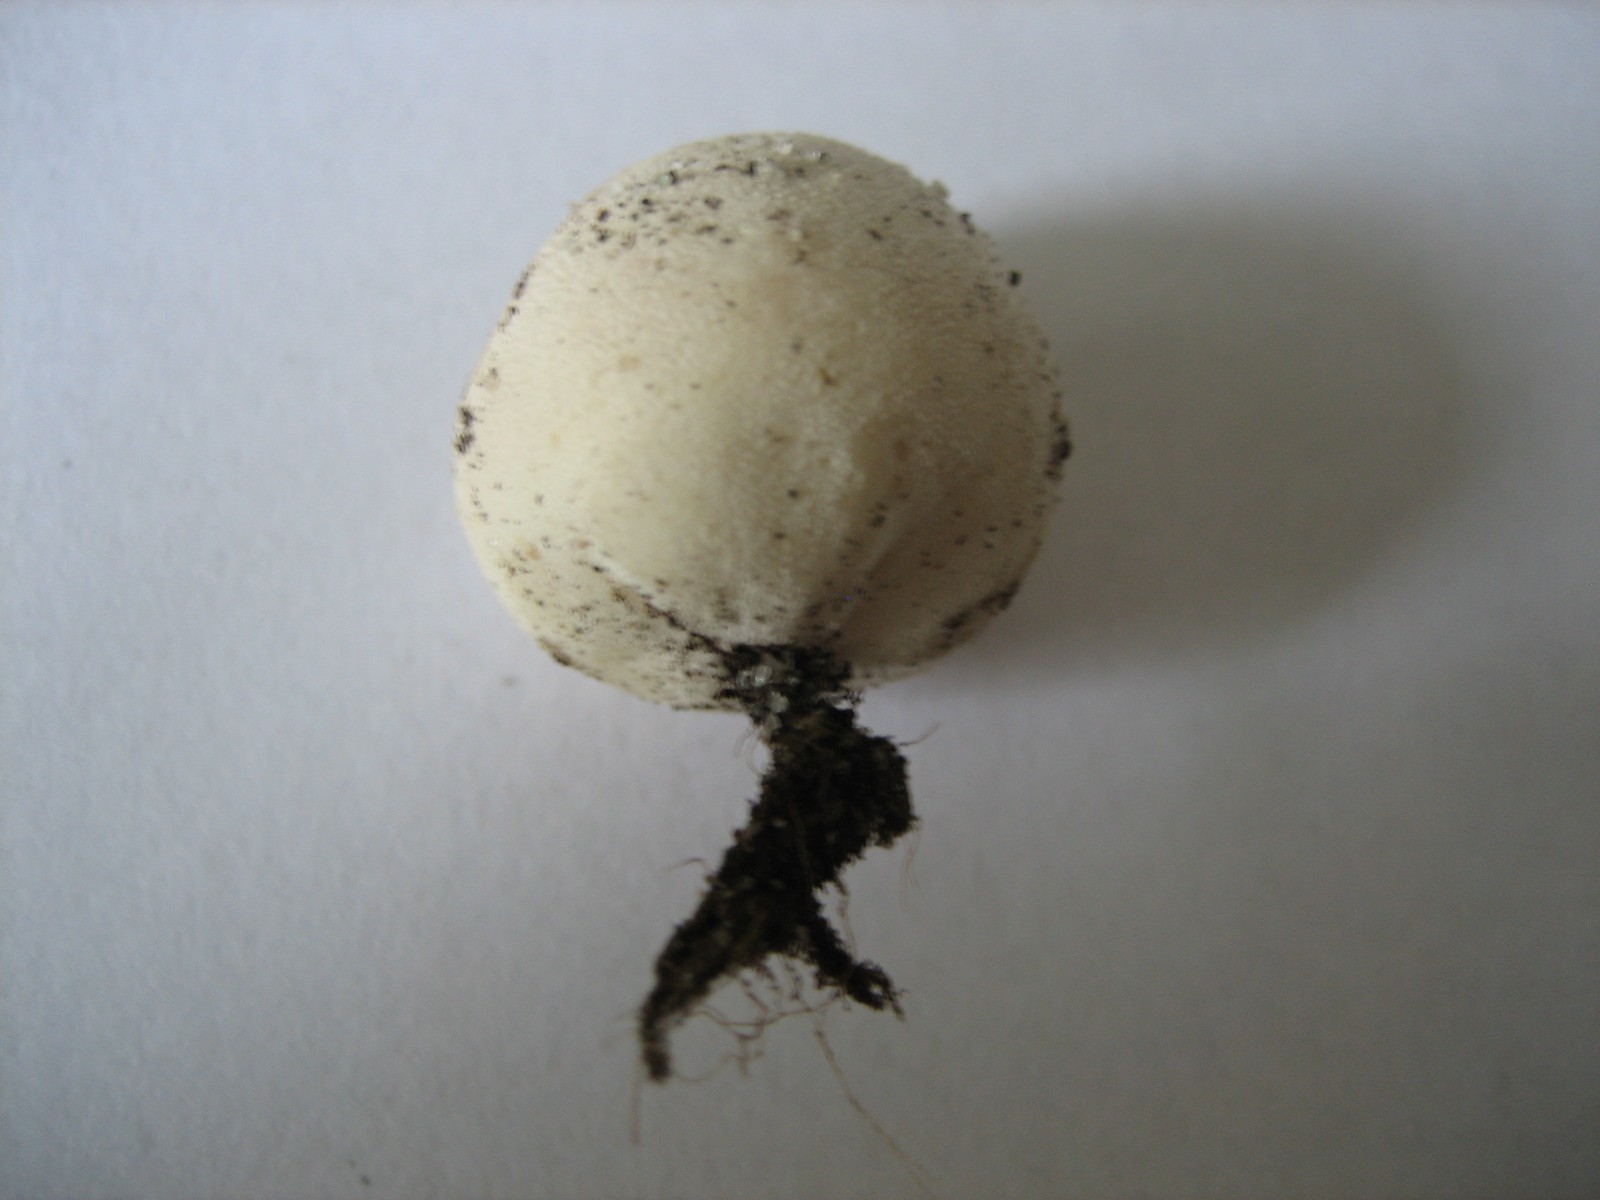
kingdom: Fungi
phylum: Basidiomycota
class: Agaricomycetes
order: Agaricales
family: Lycoperdaceae
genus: Bovista
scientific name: Bovista
